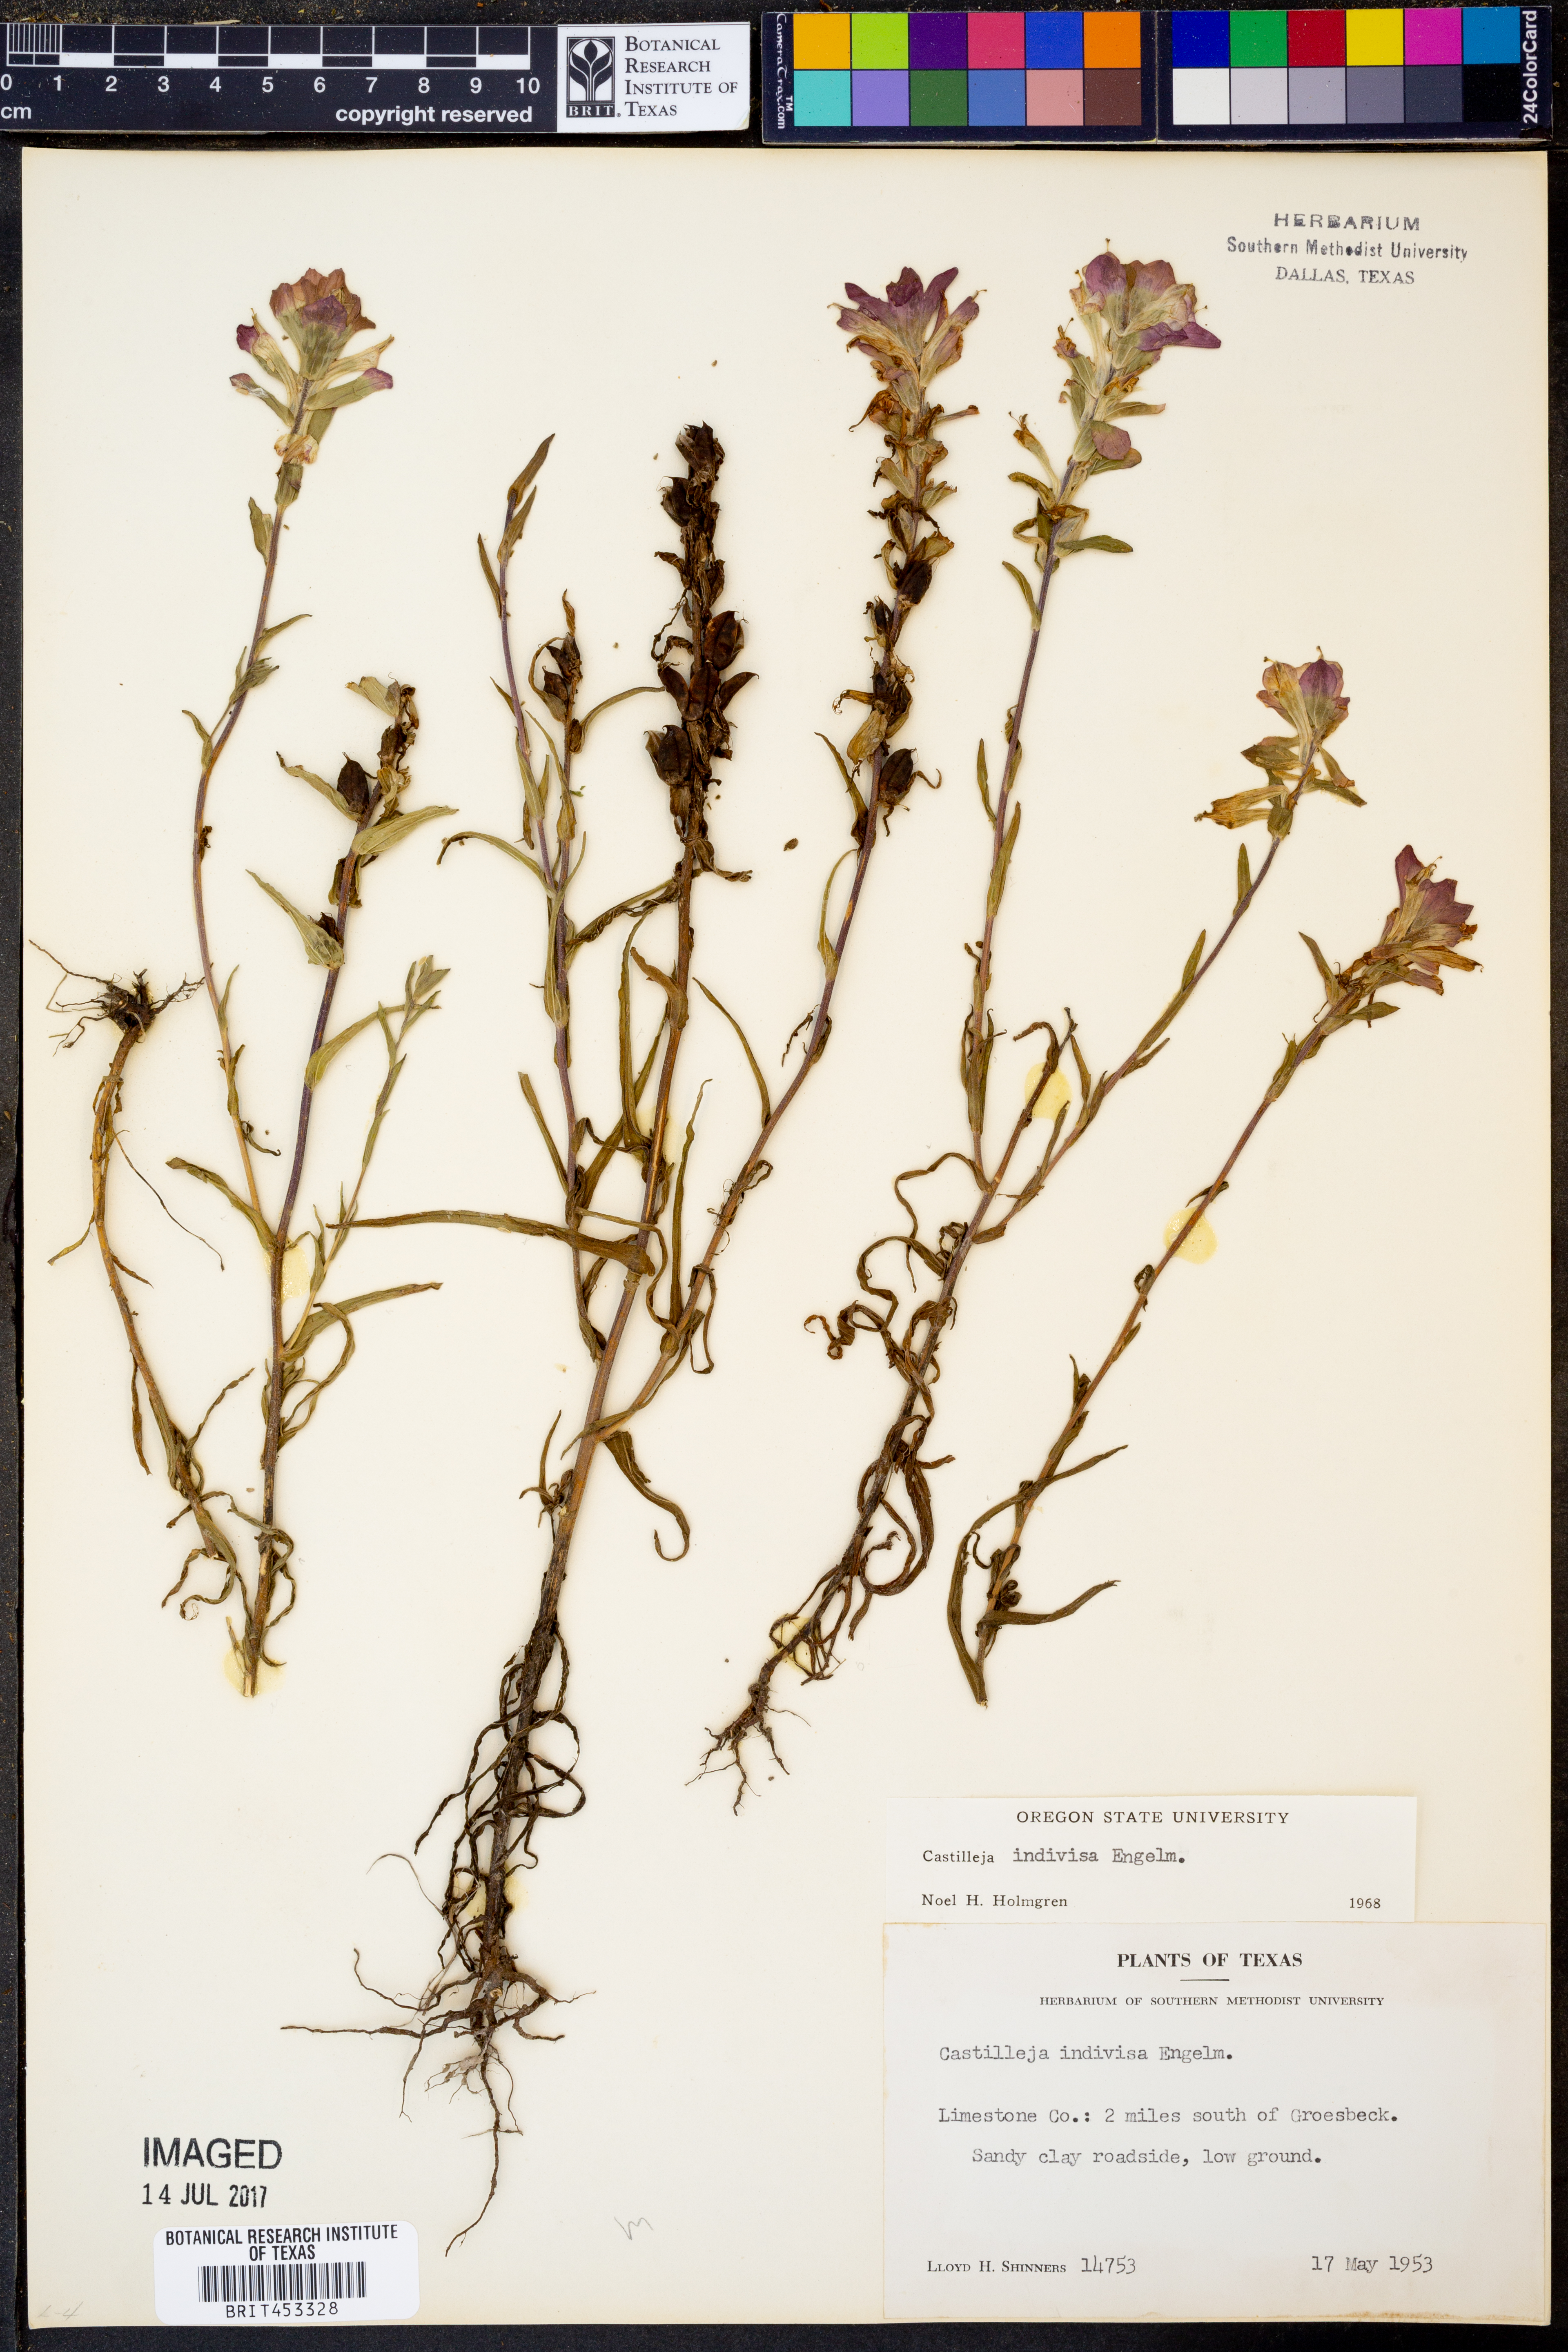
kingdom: Plantae
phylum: Tracheophyta
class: Magnoliopsida
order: Lamiales
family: Orobanchaceae
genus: Castilleja
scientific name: Castilleja indivisa
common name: Texas paintbrush
